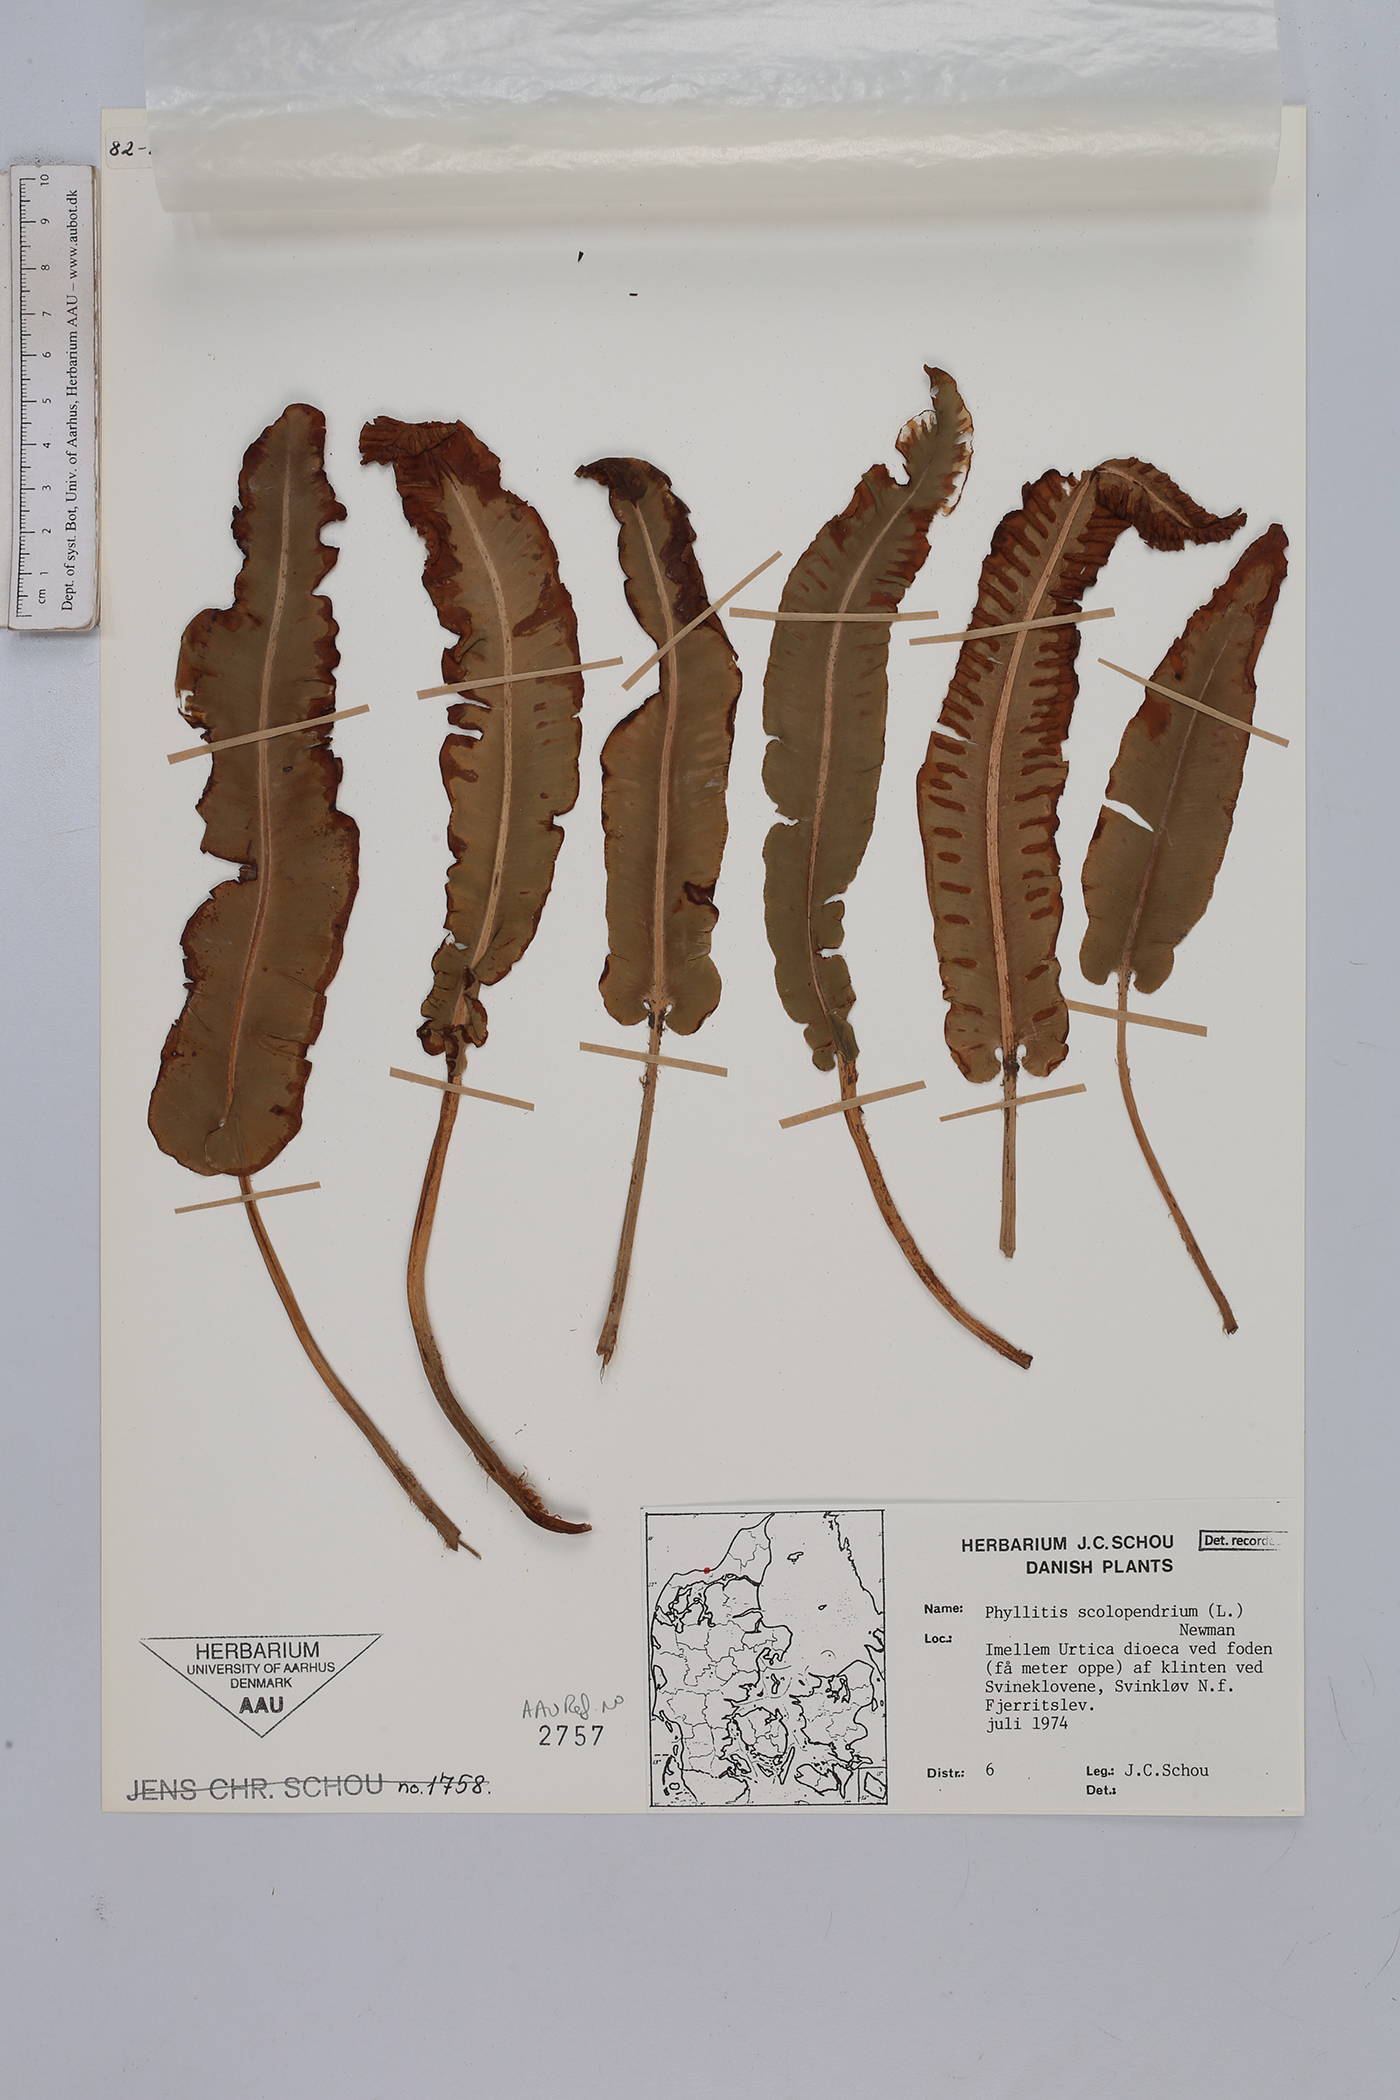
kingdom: Plantae
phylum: Tracheophyta
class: Polypodiopsida
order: Polypodiales
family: Aspleniaceae
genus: Asplenium
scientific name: Asplenium scolopendrium
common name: Hart's-tongue fern
